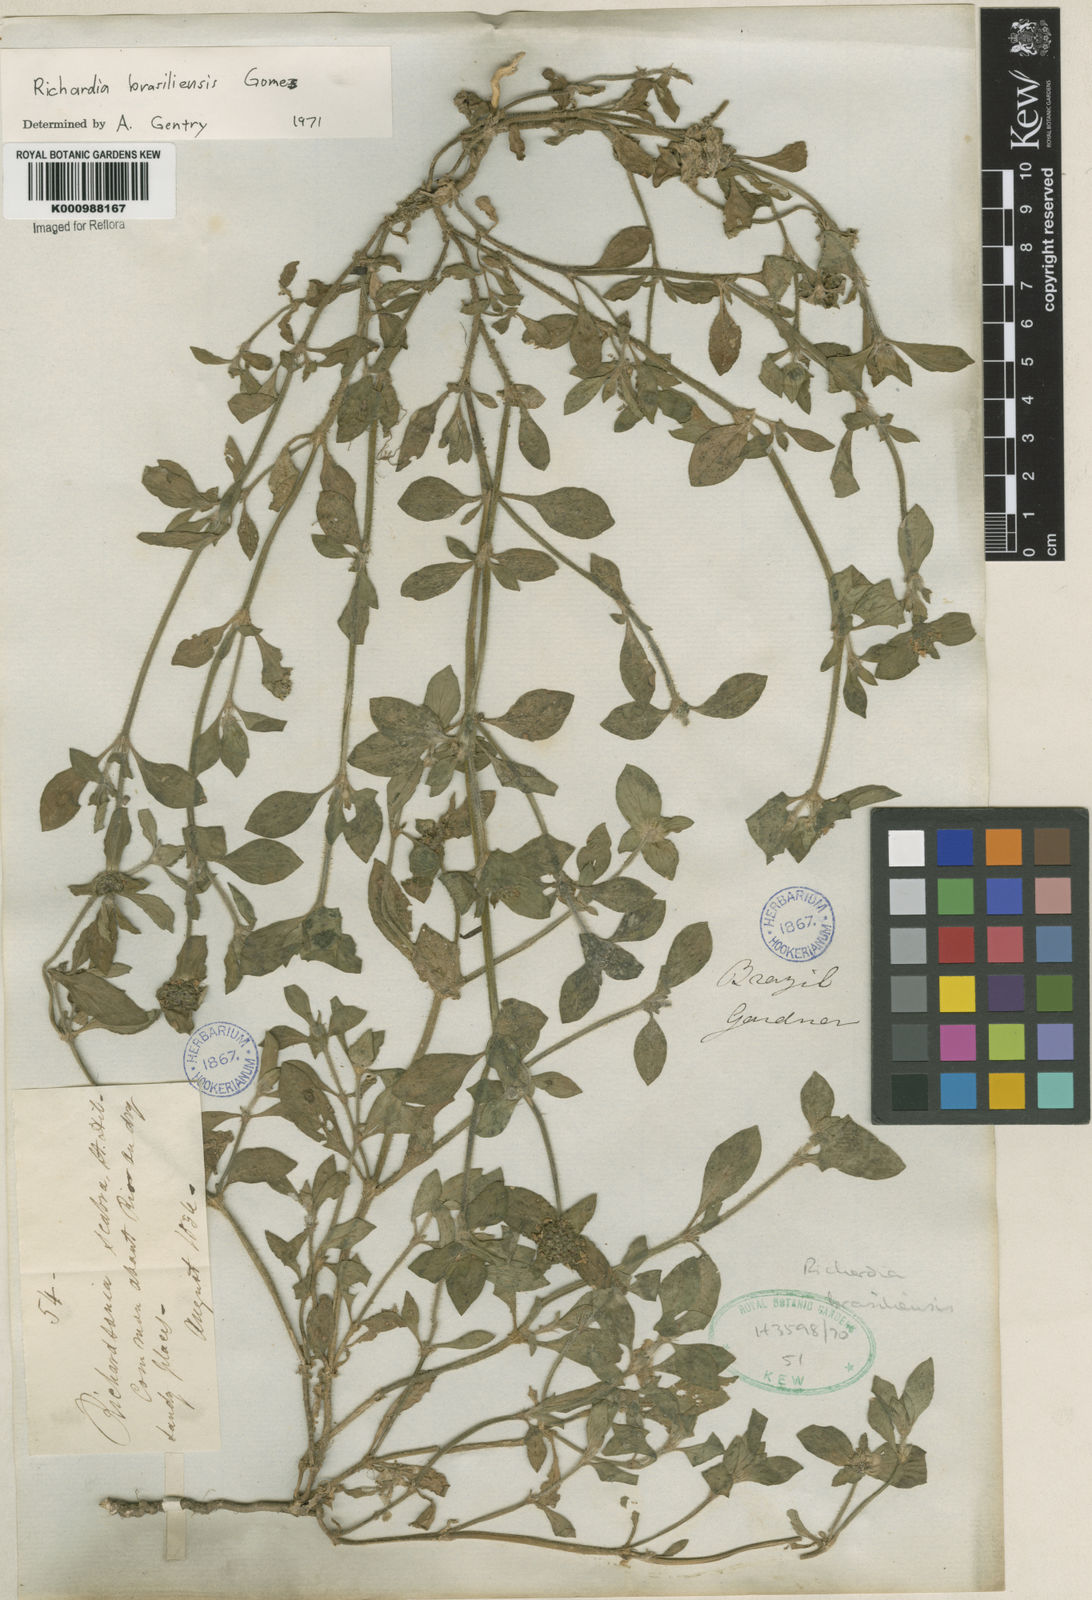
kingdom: Plantae
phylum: Tracheophyta
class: Magnoliopsida
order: Gentianales
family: Rubiaceae
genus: Richardia
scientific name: Richardia brasiliensis
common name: Tropical mexican clover
